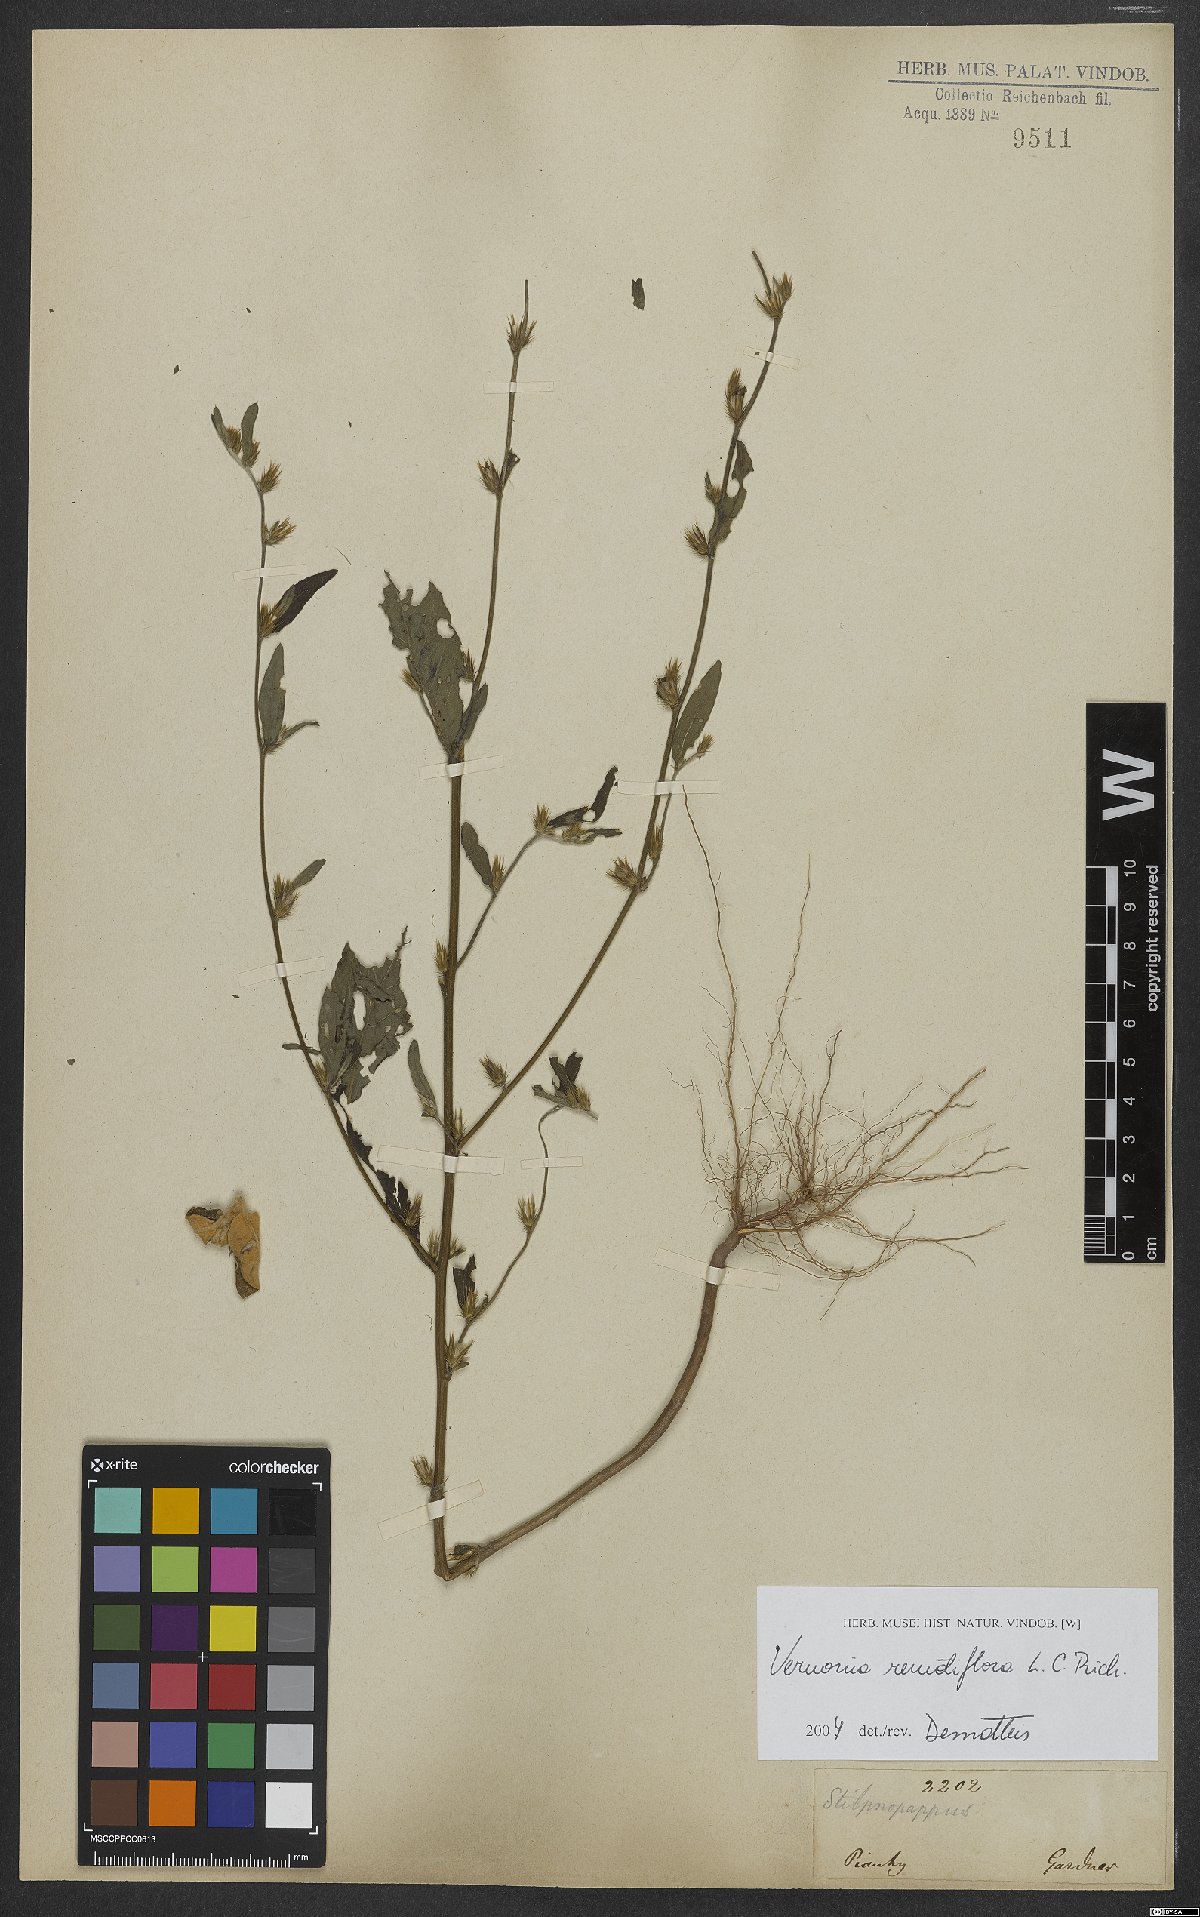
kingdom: Plantae
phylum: Tracheophyta
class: Magnoliopsida
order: Asterales
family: Asteraceae
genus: Lepidaploa
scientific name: Lepidaploa remotiflora
